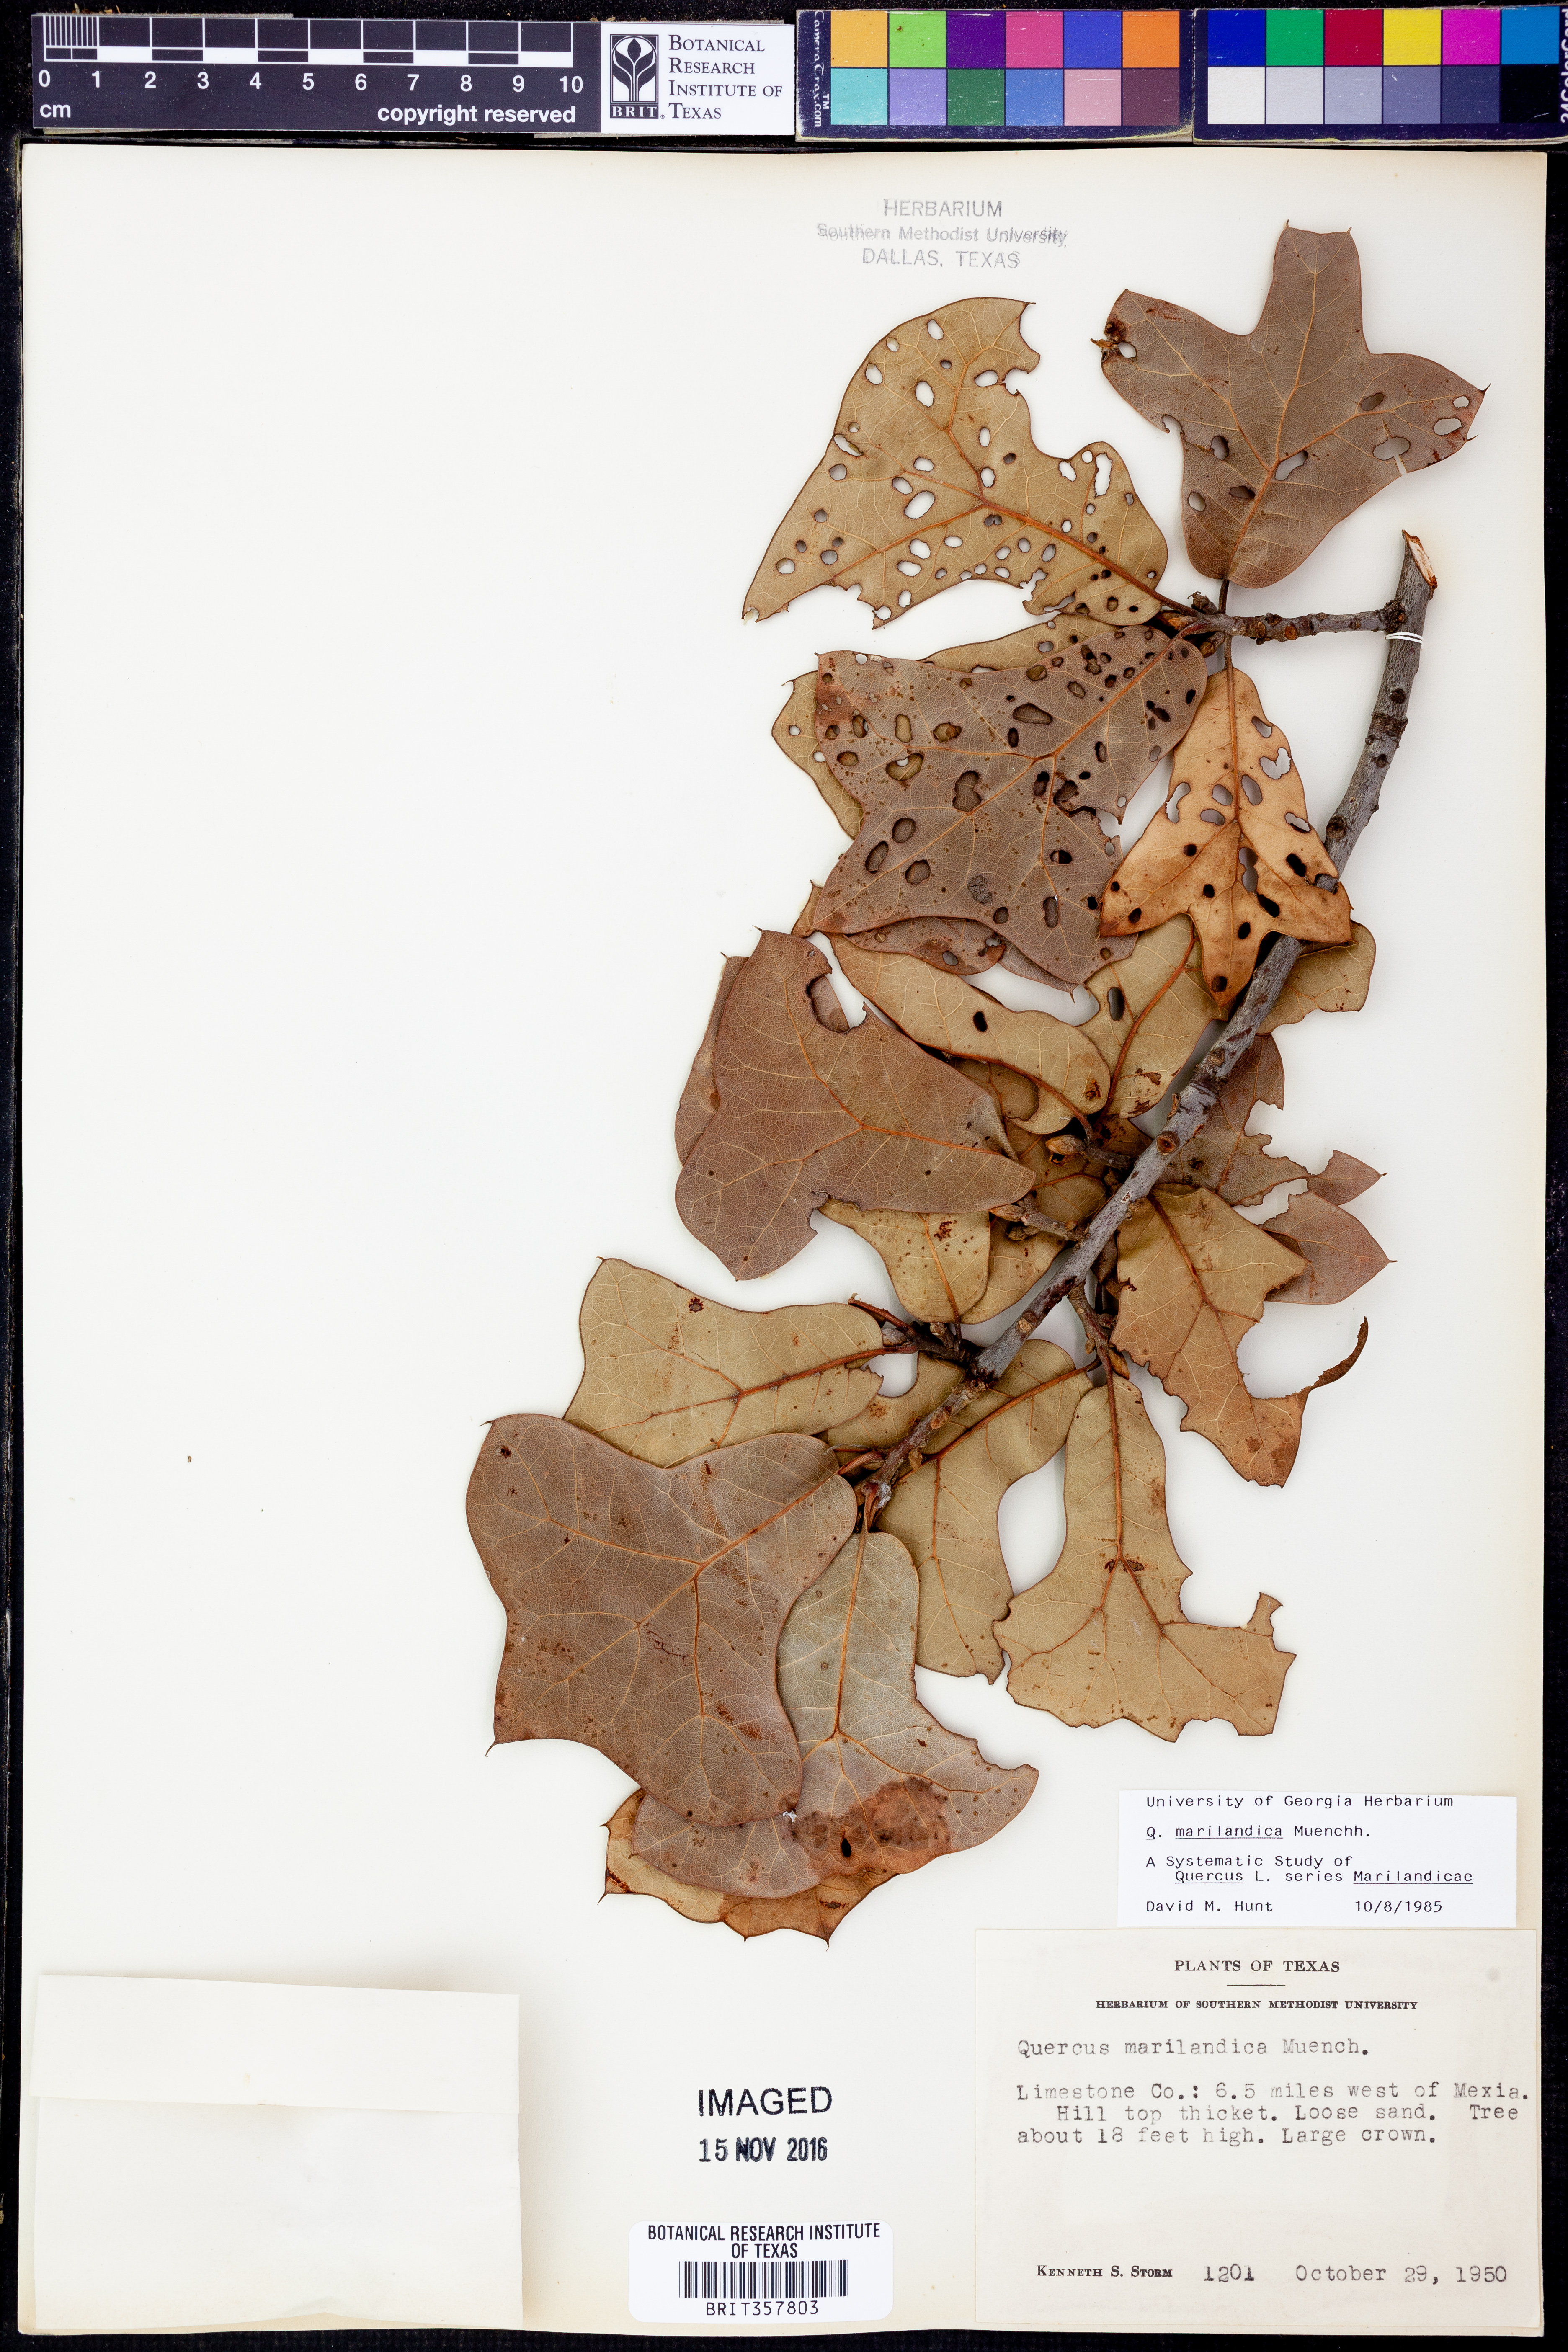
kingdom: Plantae
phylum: Tracheophyta
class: Magnoliopsida
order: Fagales
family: Fagaceae
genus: Quercus
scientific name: Quercus marilandica
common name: Blackjack oak
